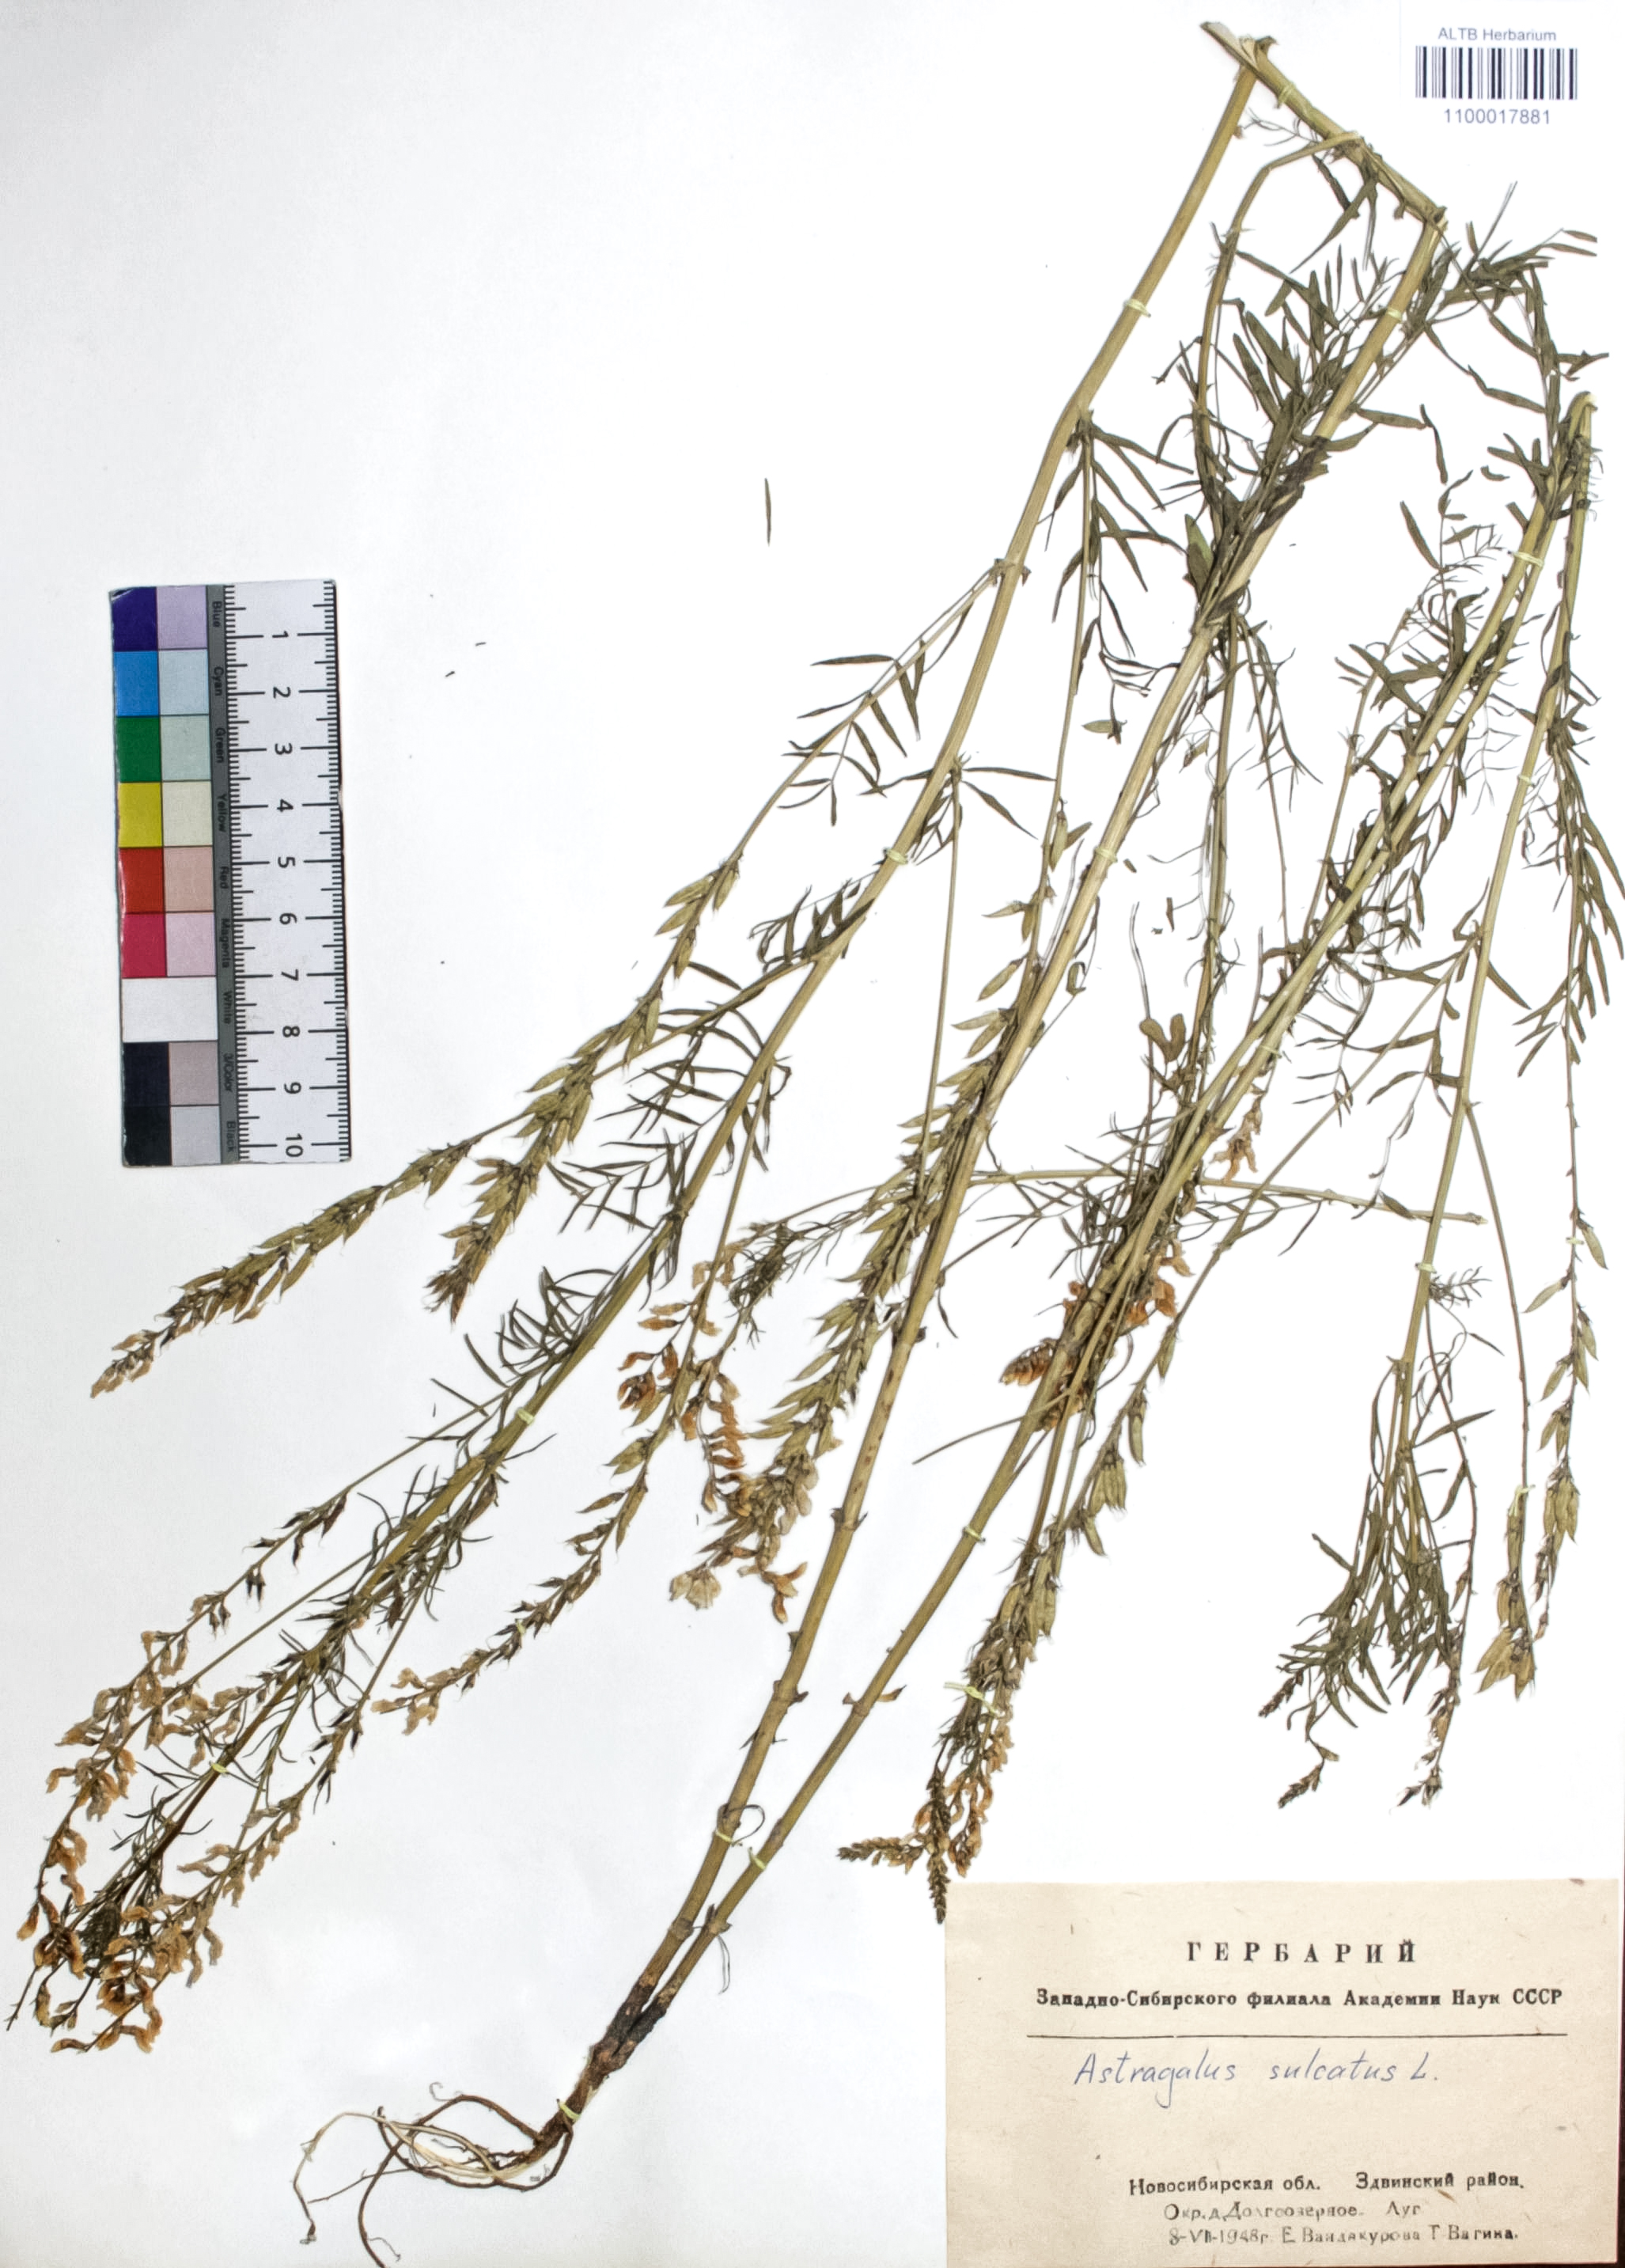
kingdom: Plantae
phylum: Tracheophyta
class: Magnoliopsida
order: Fabales
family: Fabaceae
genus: Astragalus
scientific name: Astragalus sulcatus
